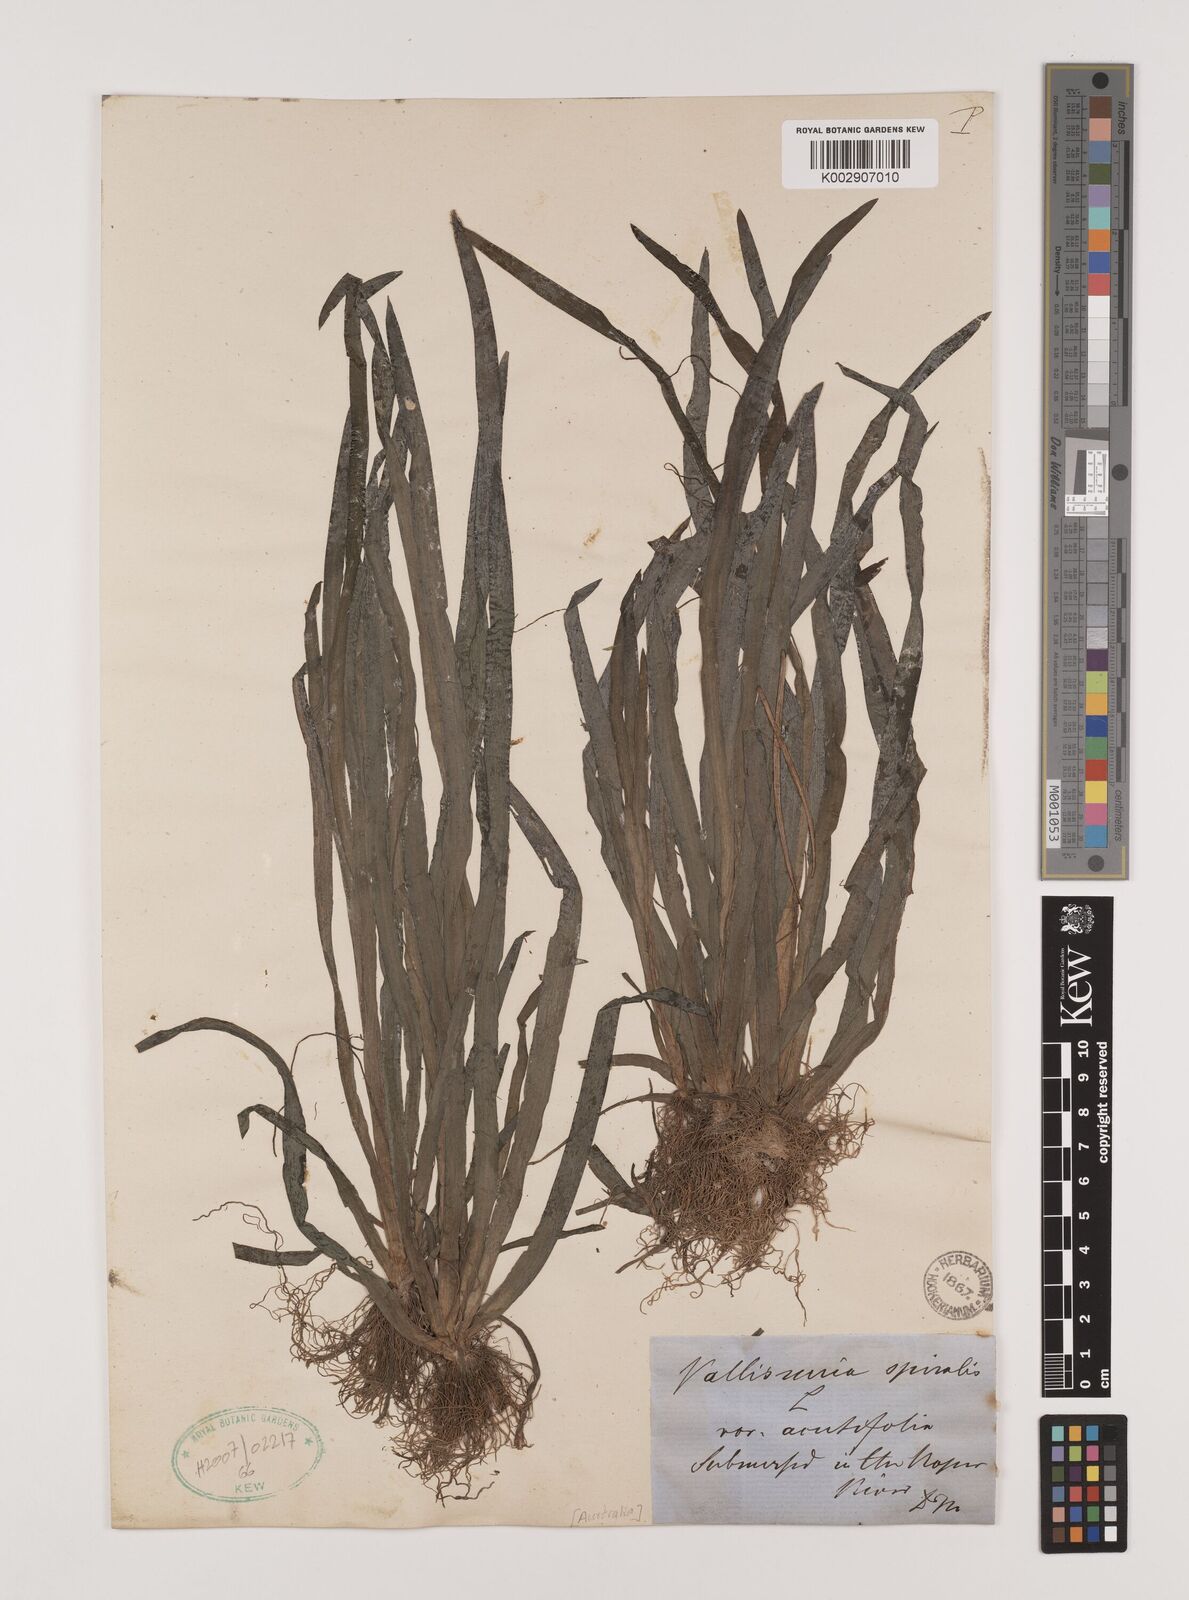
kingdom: Plantae
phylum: Tracheophyta
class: Liliopsida
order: Alismatales
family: Hydrocharitaceae
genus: Vallisneria
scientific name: Vallisneria spiralis
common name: Tapegrass
